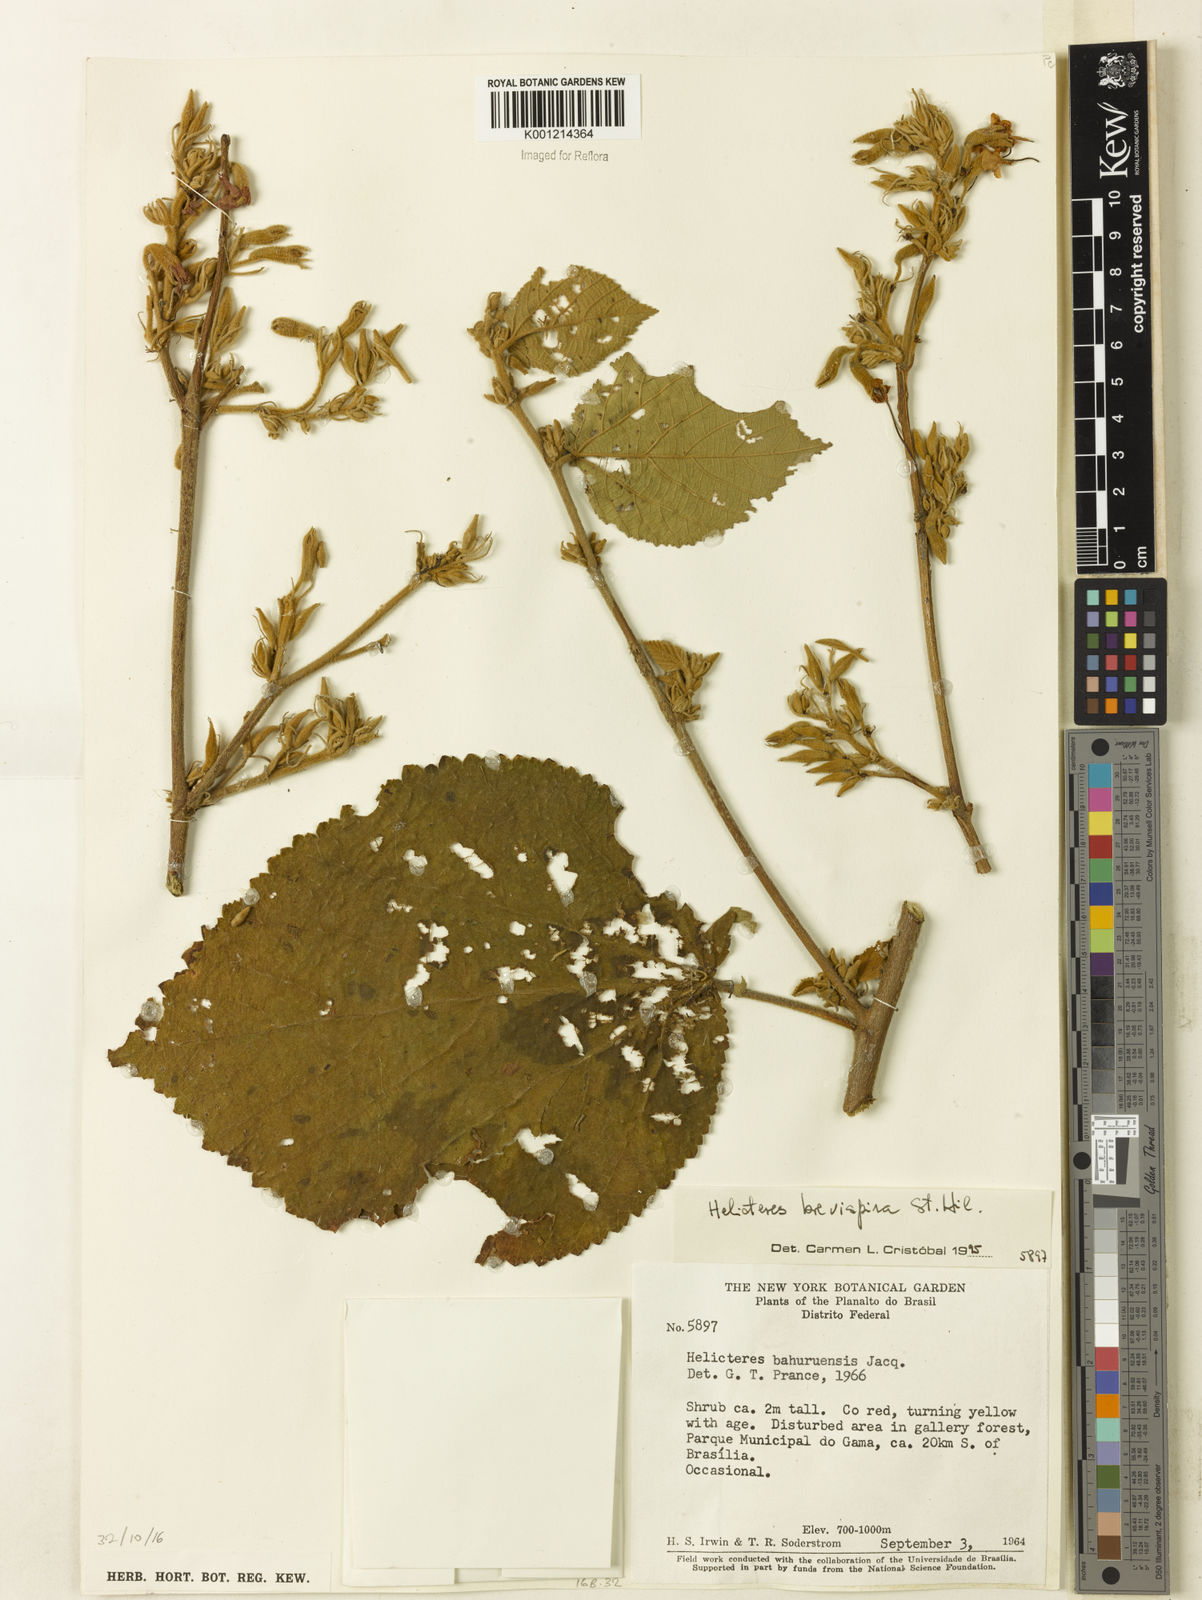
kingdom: Plantae
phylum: Tracheophyta
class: Magnoliopsida
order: Malvales
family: Malvaceae
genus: Helicteres
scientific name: Helicteres
